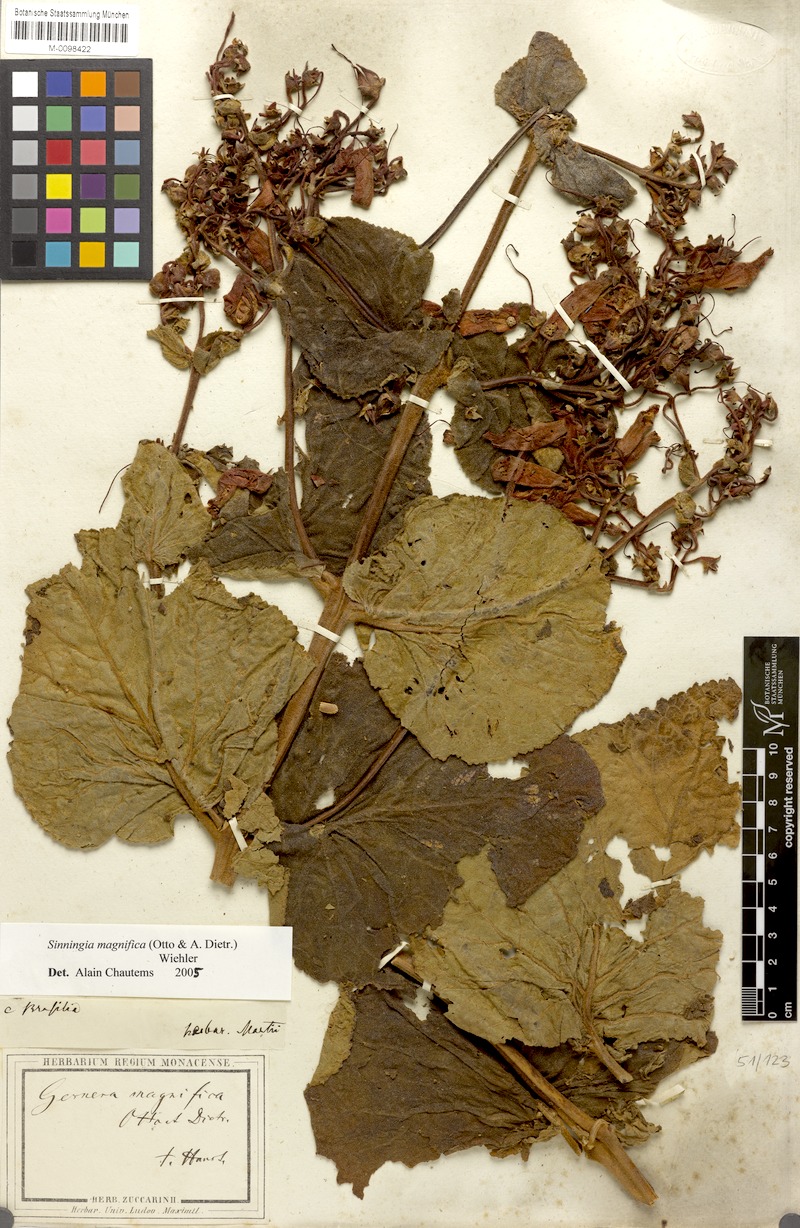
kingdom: Plantae
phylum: Tracheophyta
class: Magnoliopsida
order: Lamiales
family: Gesneriaceae
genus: Sinningia
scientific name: Sinningia magnifica
